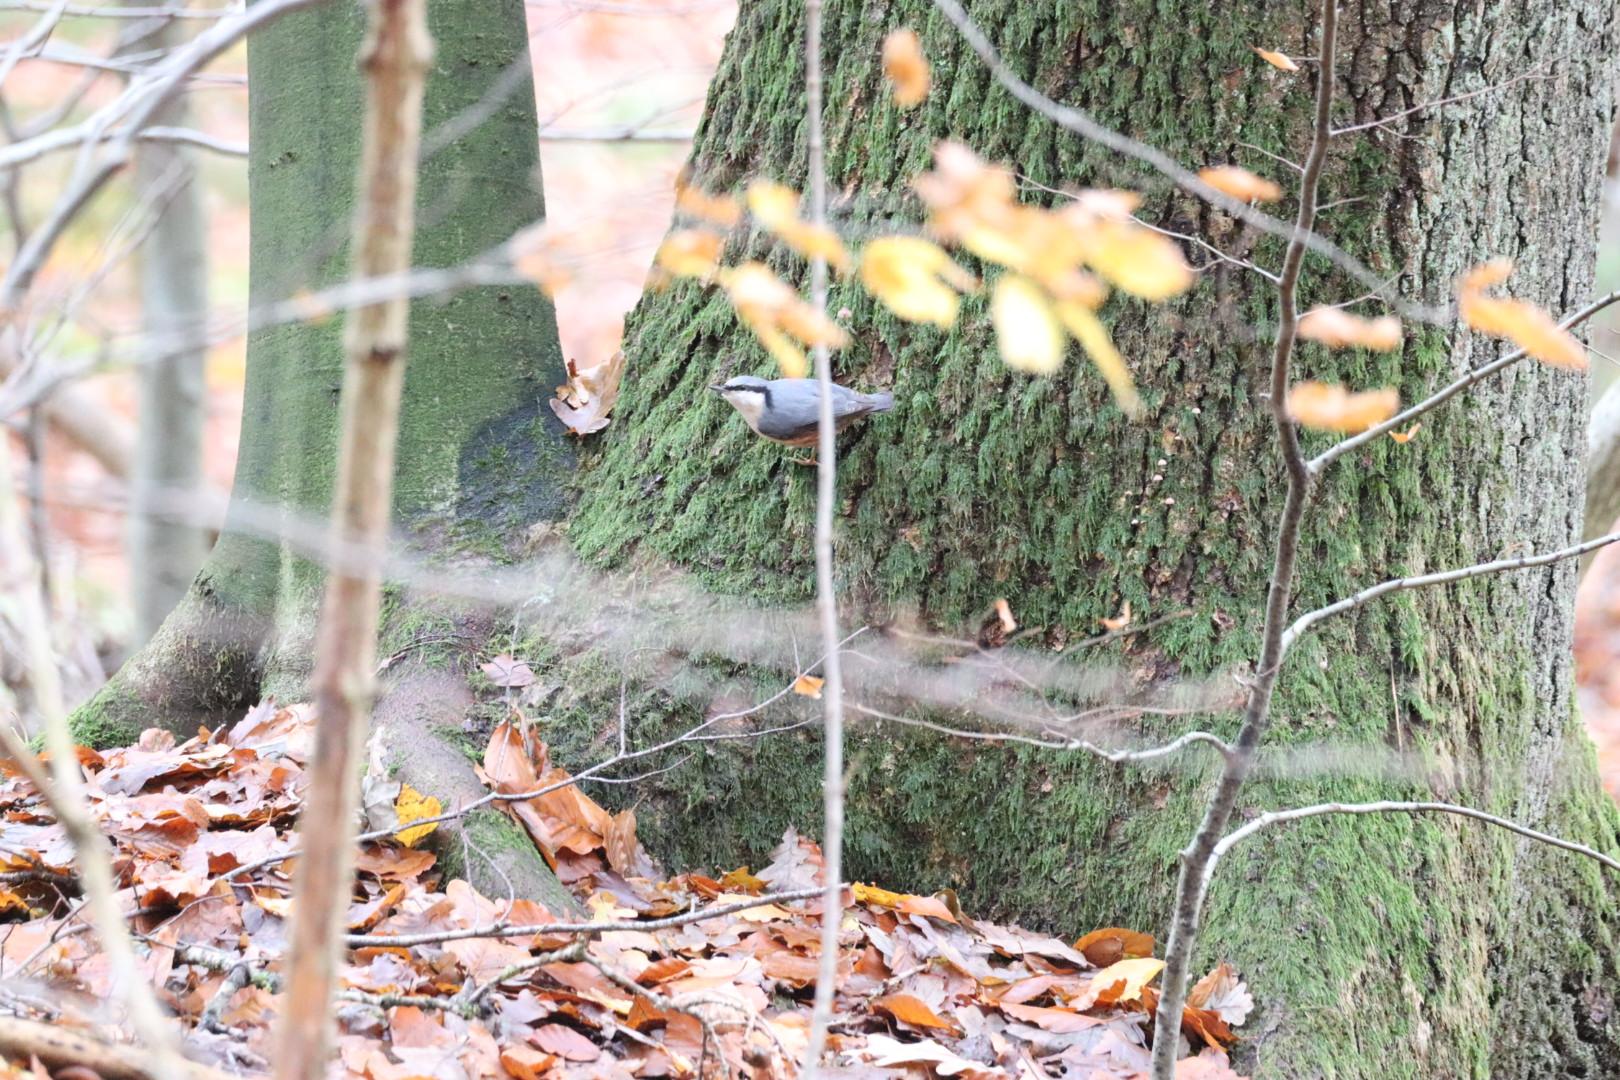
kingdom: Animalia
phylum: Chordata
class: Aves
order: Passeriformes
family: Sittidae
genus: Sitta
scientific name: Sitta europaea
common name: Spætmejse
